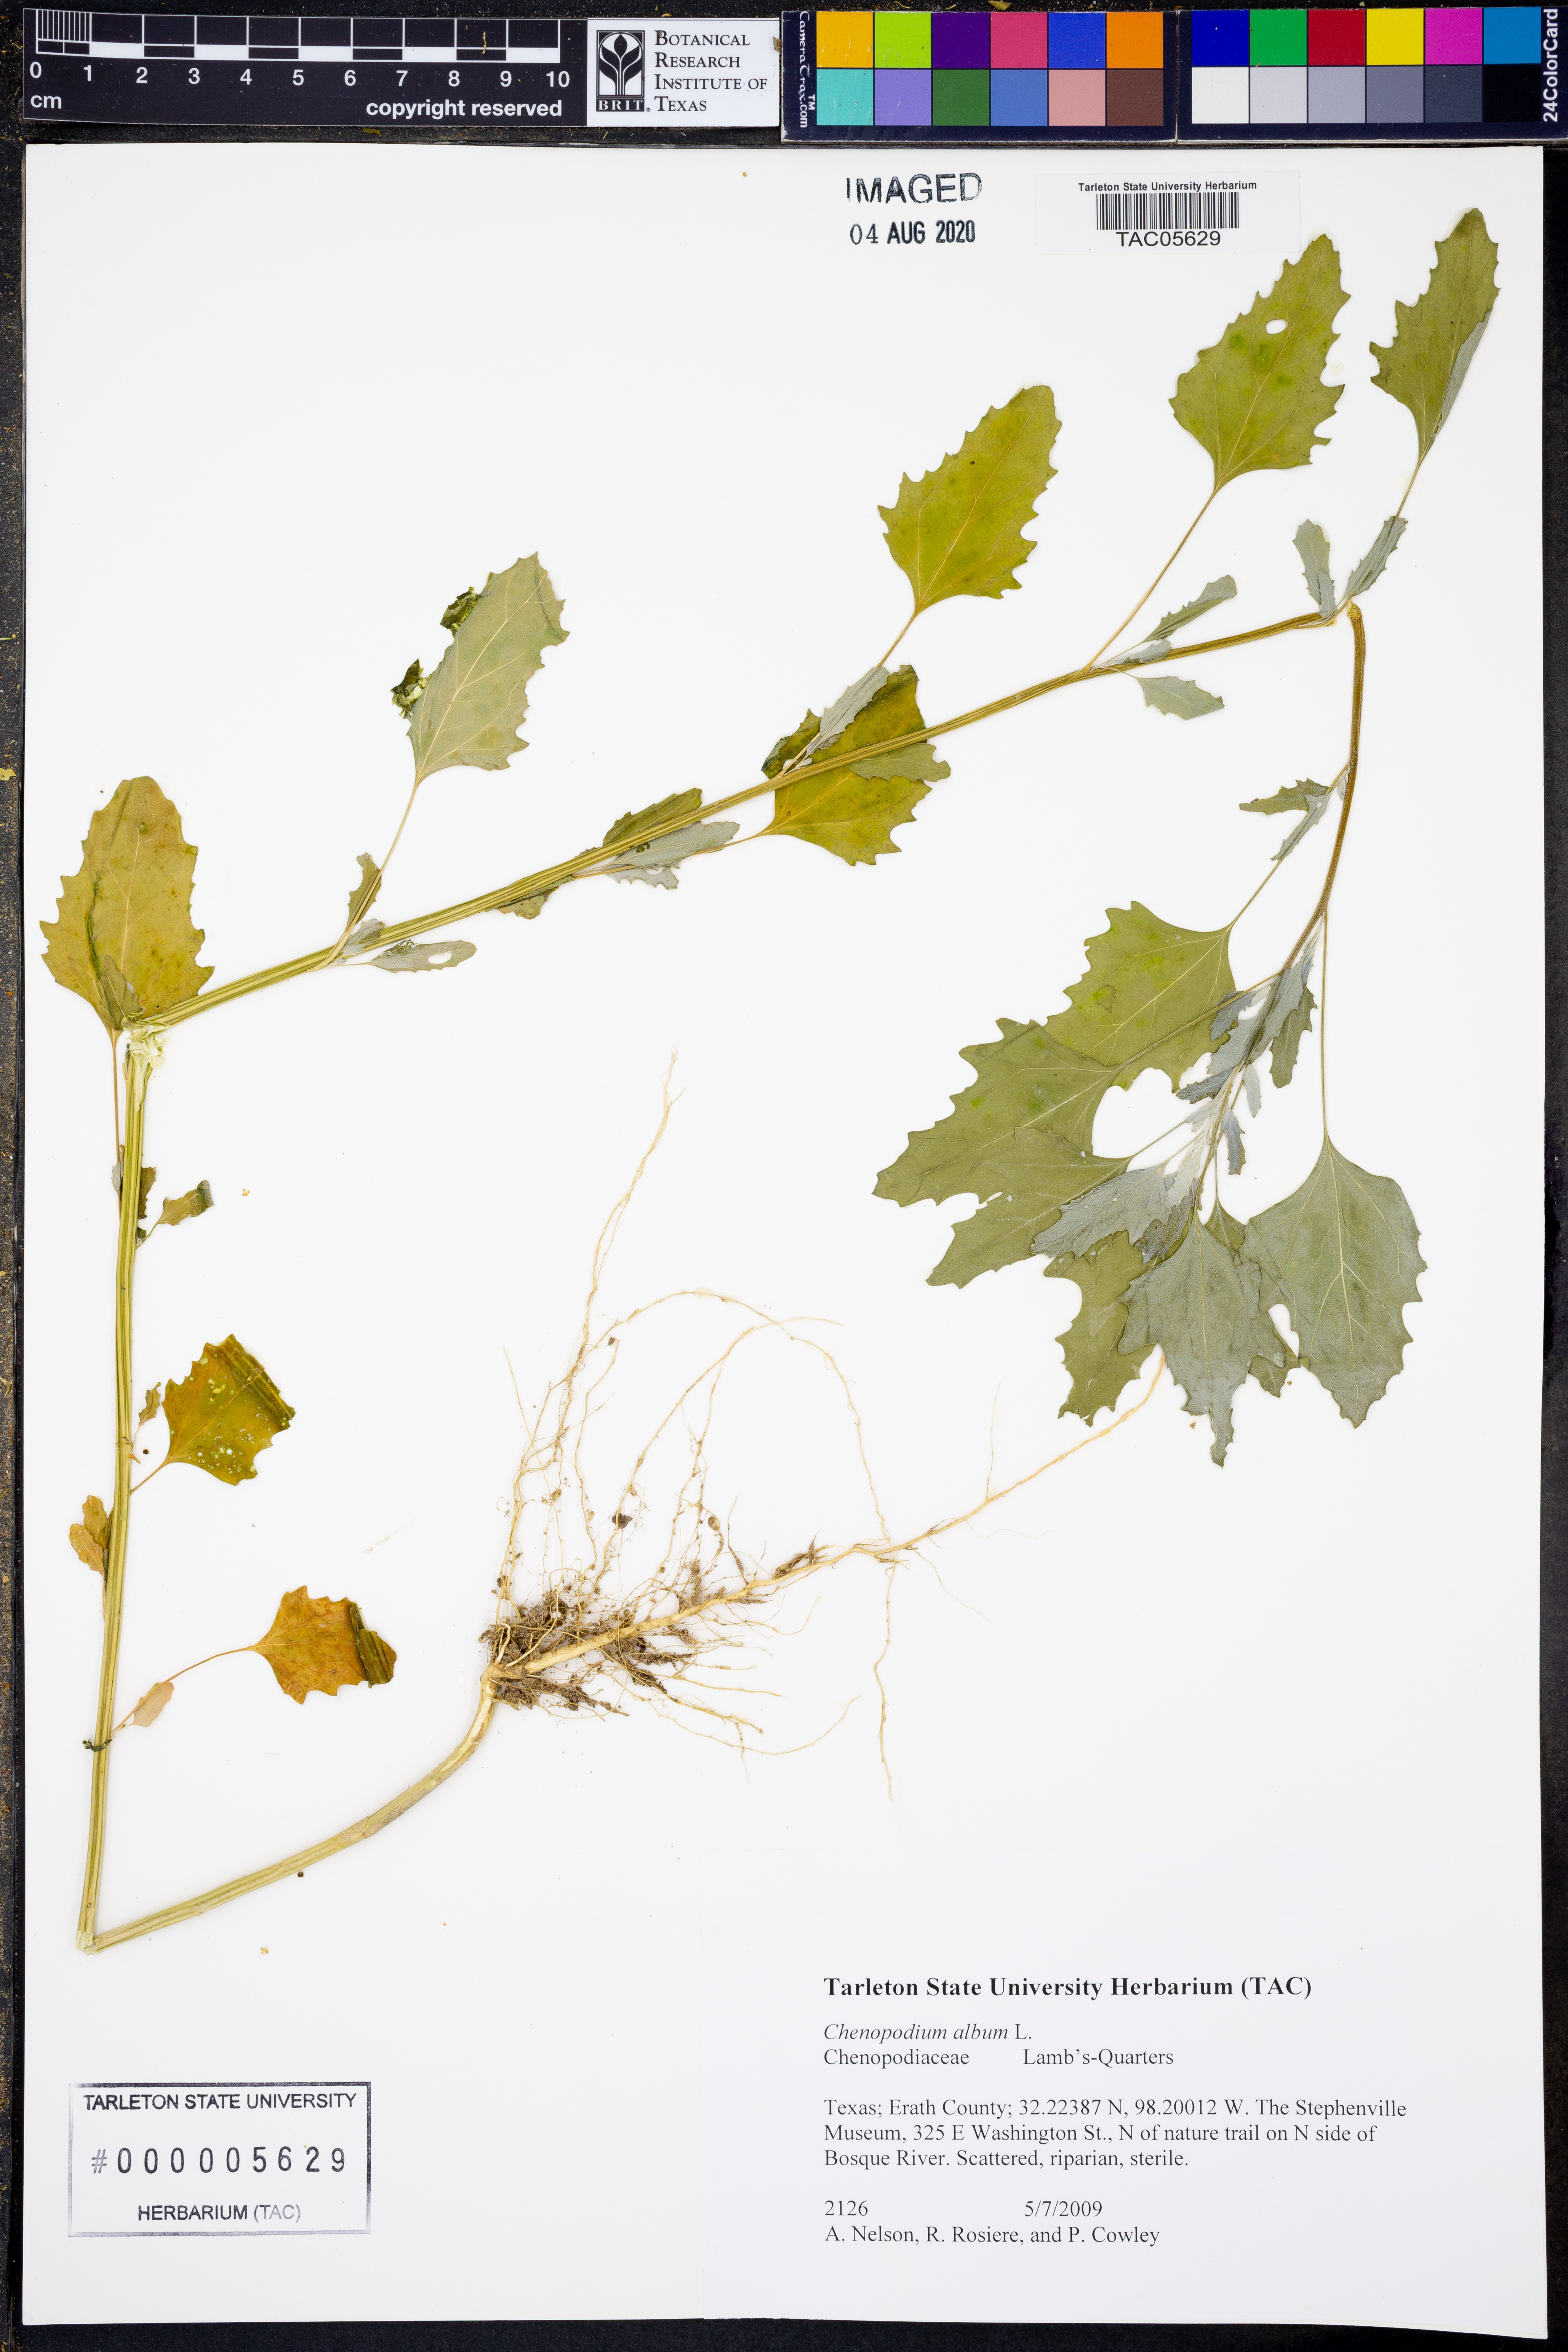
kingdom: Plantae
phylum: Tracheophyta
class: Magnoliopsida
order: Caryophyllales
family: Amaranthaceae
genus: Chenopodium
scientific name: Chenopodium album
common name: Fat-hen
